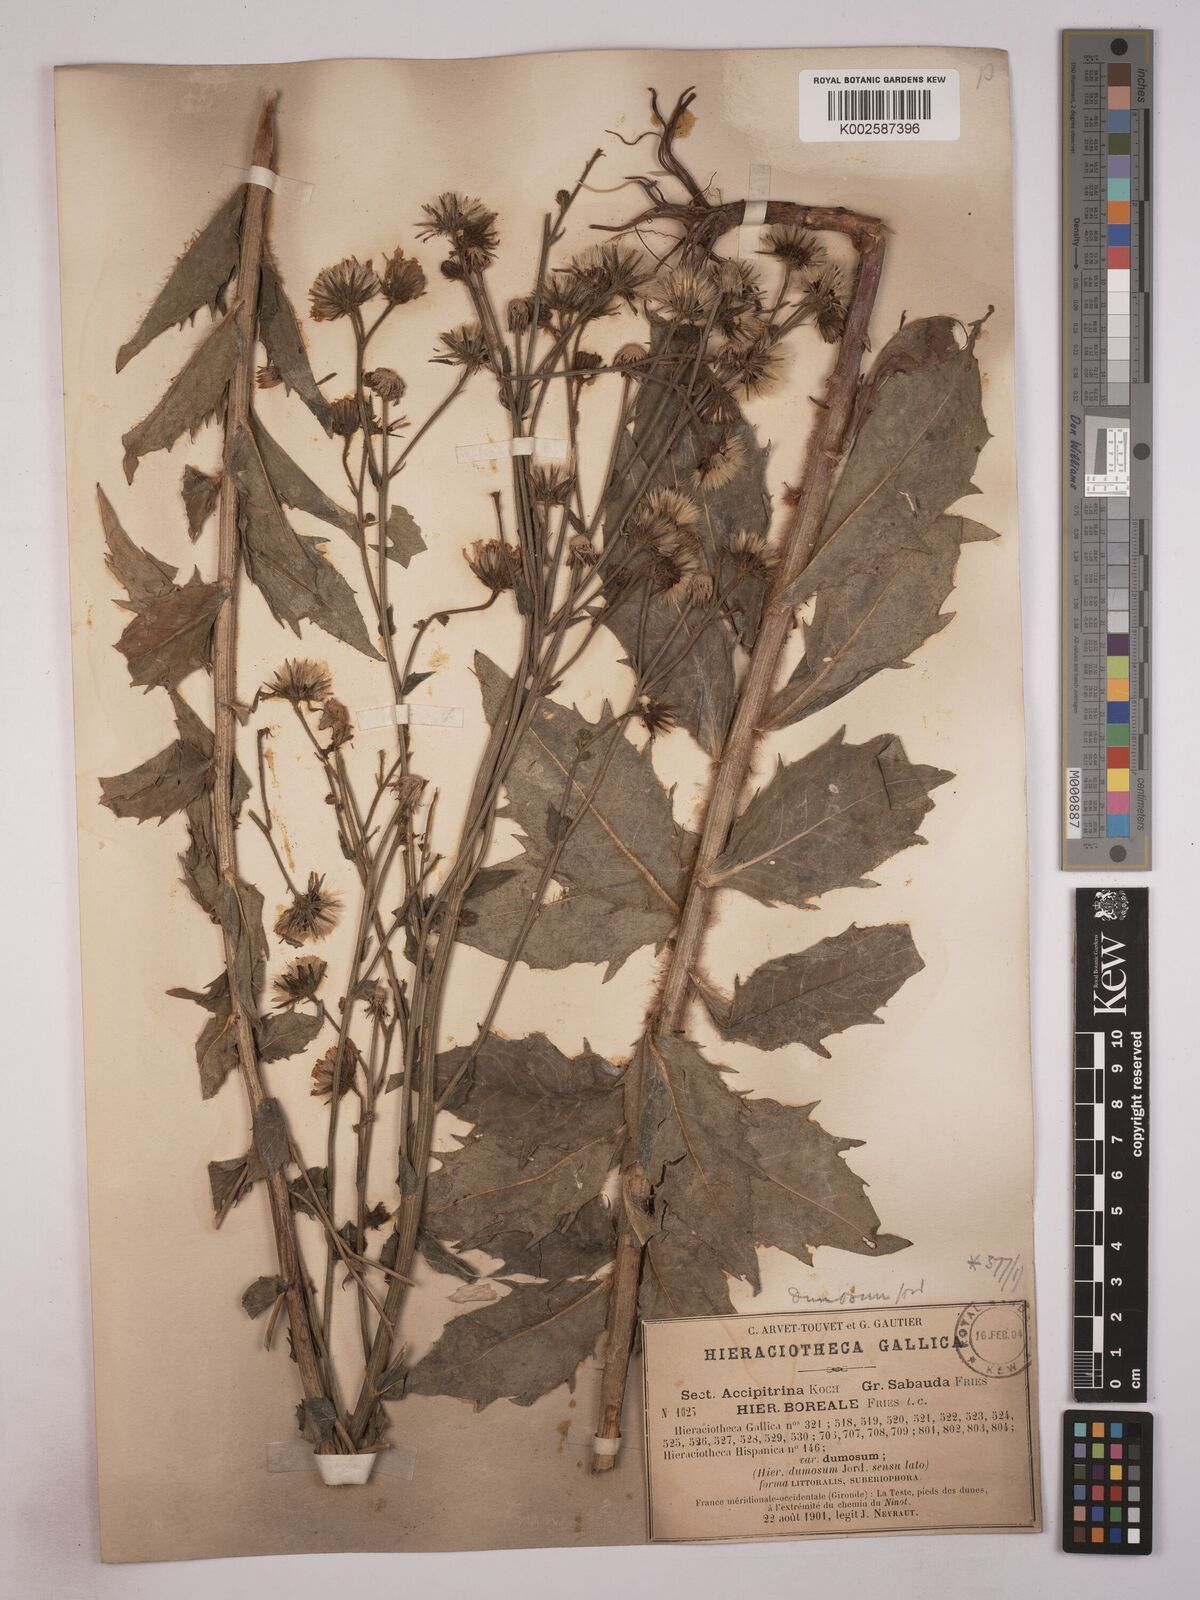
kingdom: Plantae
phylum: Tracheophyta
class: Magnoliopsida
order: Asterales
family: Asteraceae
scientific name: Asteraceae
